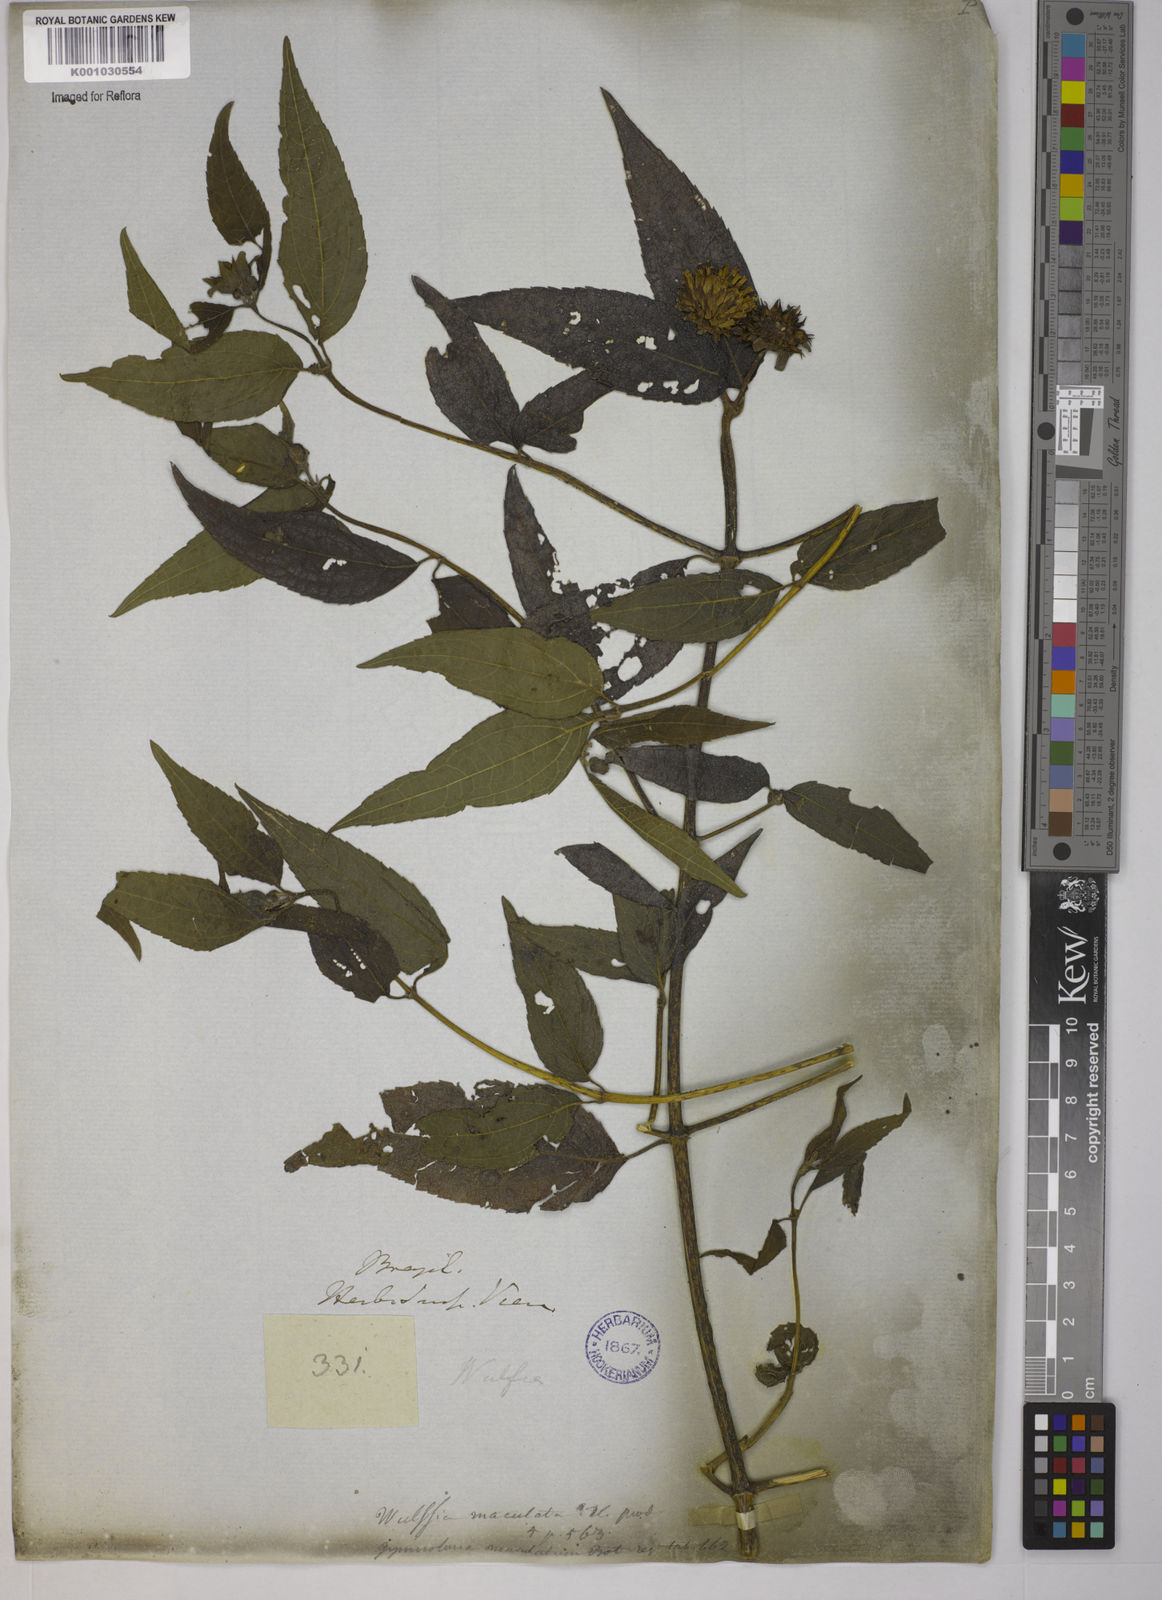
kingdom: Plantae
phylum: Tracheophyta
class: Magnoliopsida
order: Asterales
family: Asteraceae
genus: Tilesia
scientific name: Tilesia baccata
